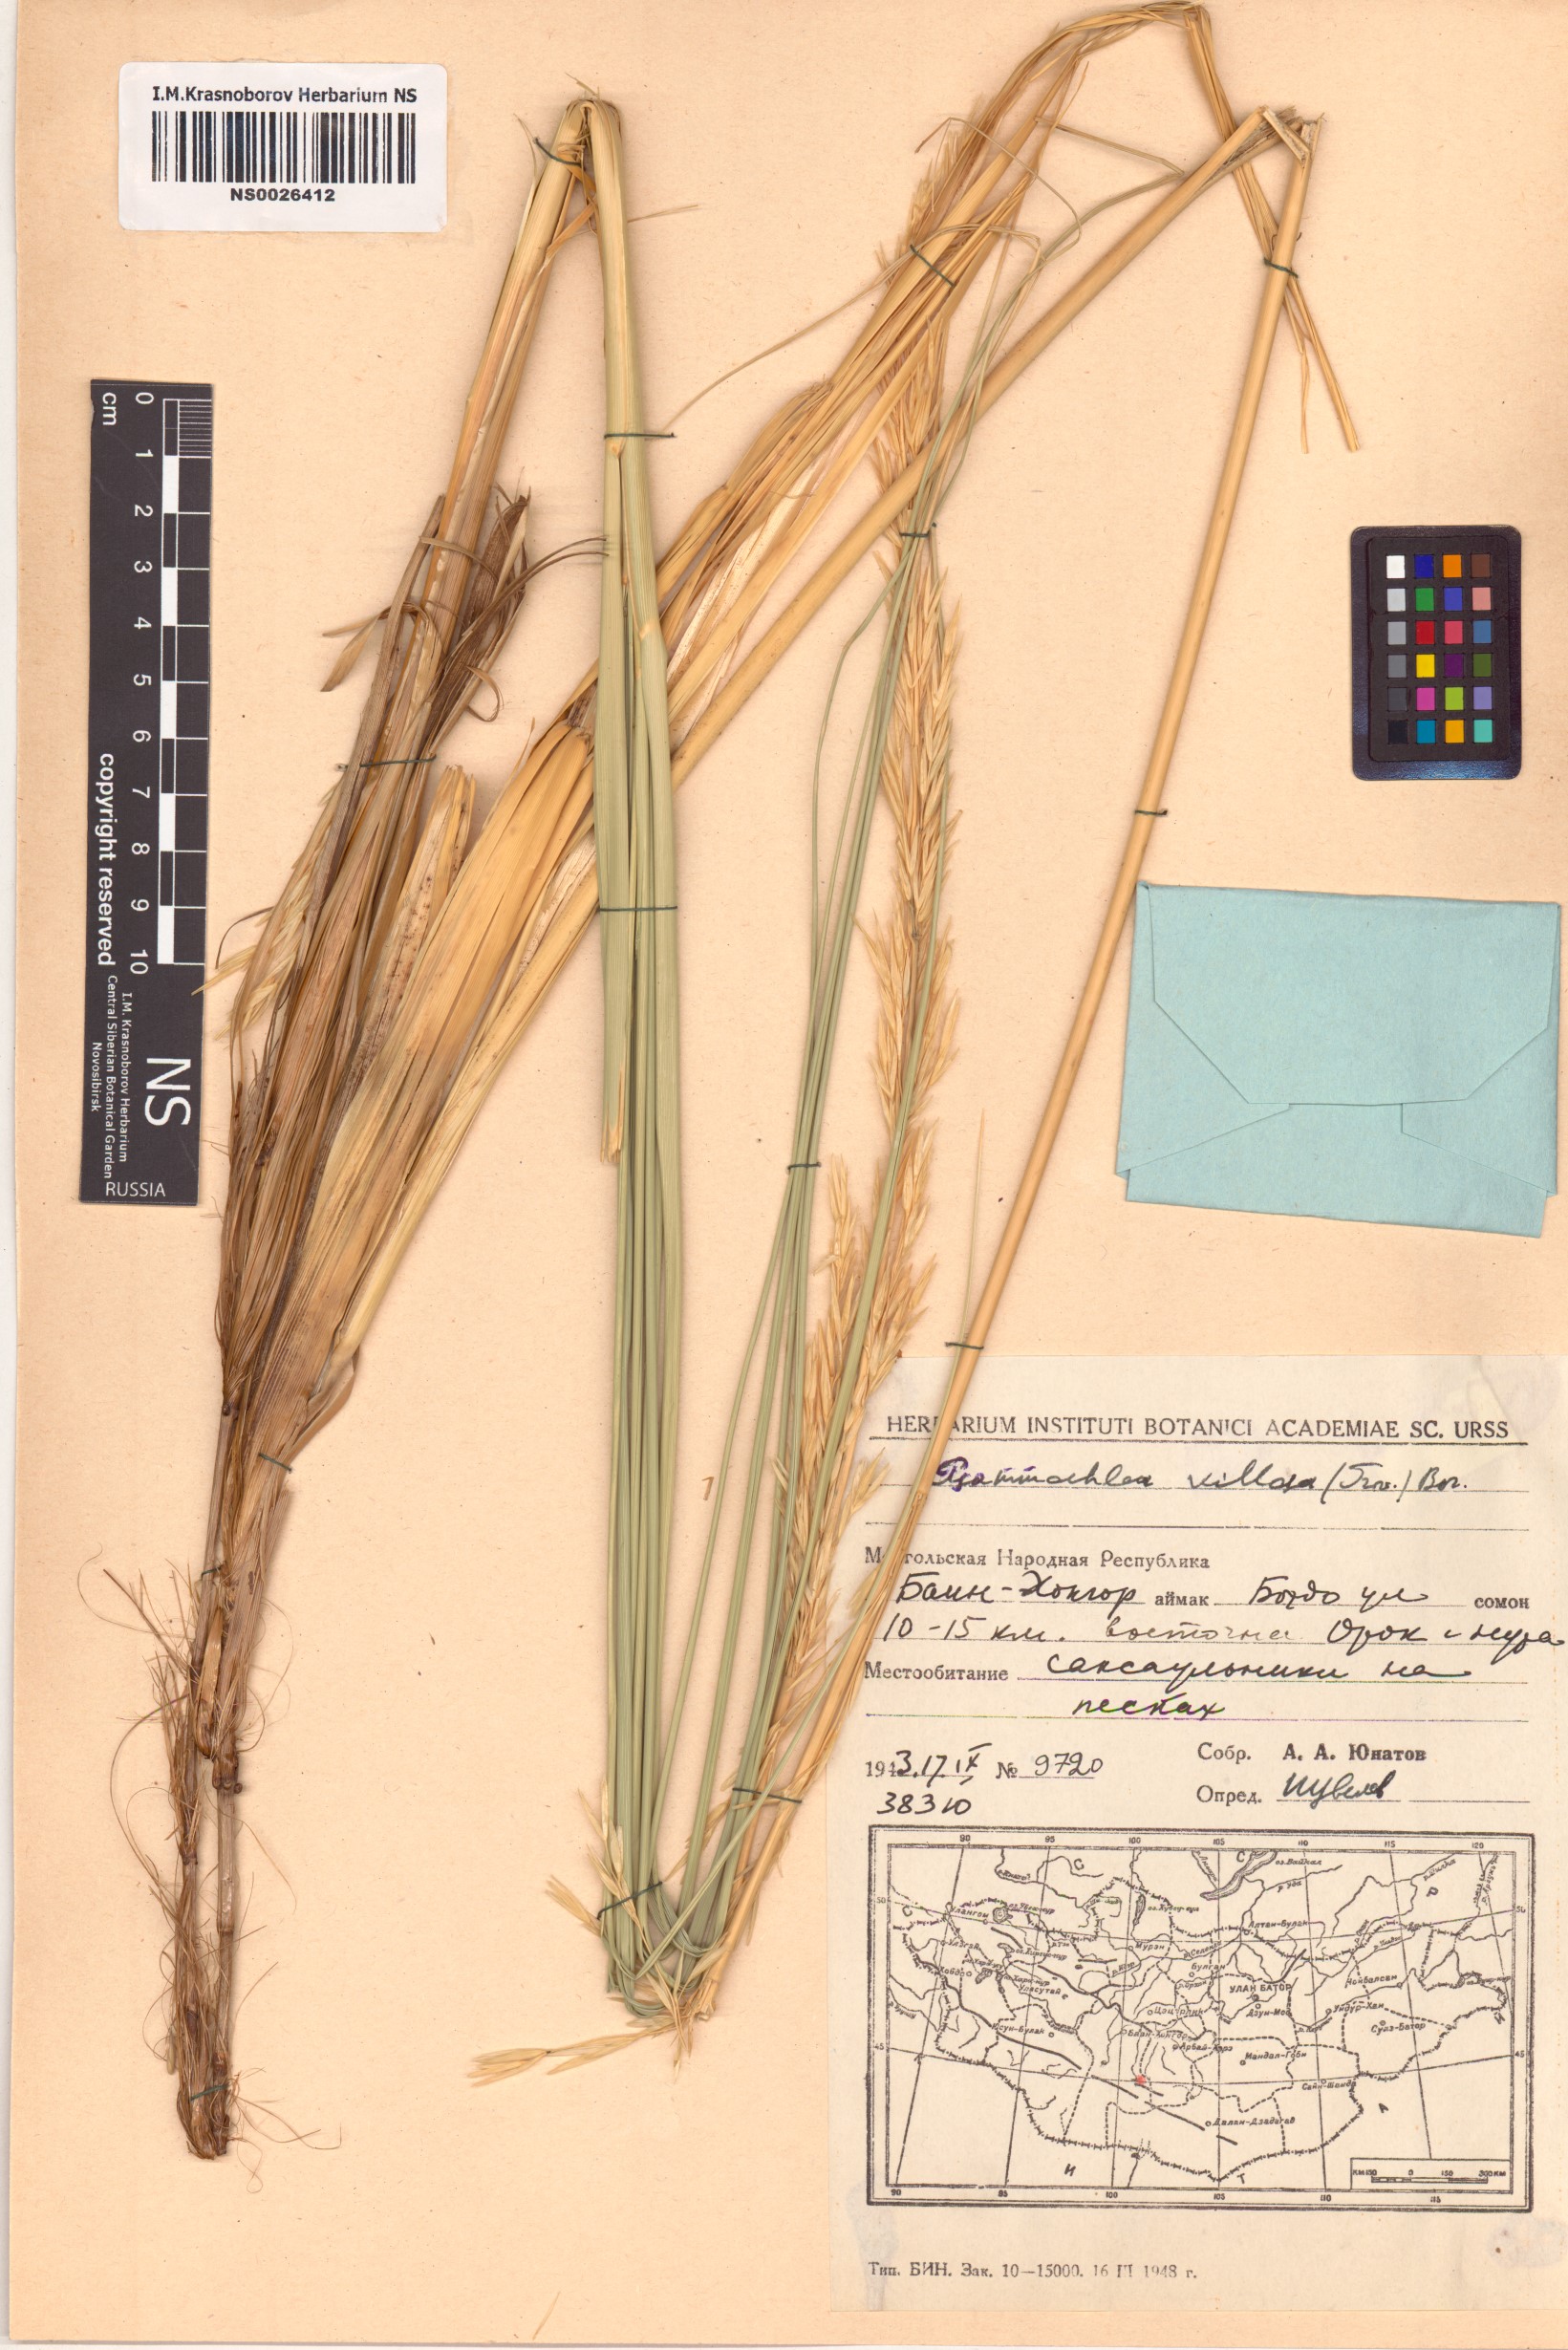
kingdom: Plantae
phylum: Tracheophyta
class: Liliopsida
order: Poales
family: Poaceae
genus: Psammochloa
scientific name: Psammochloa villosa
